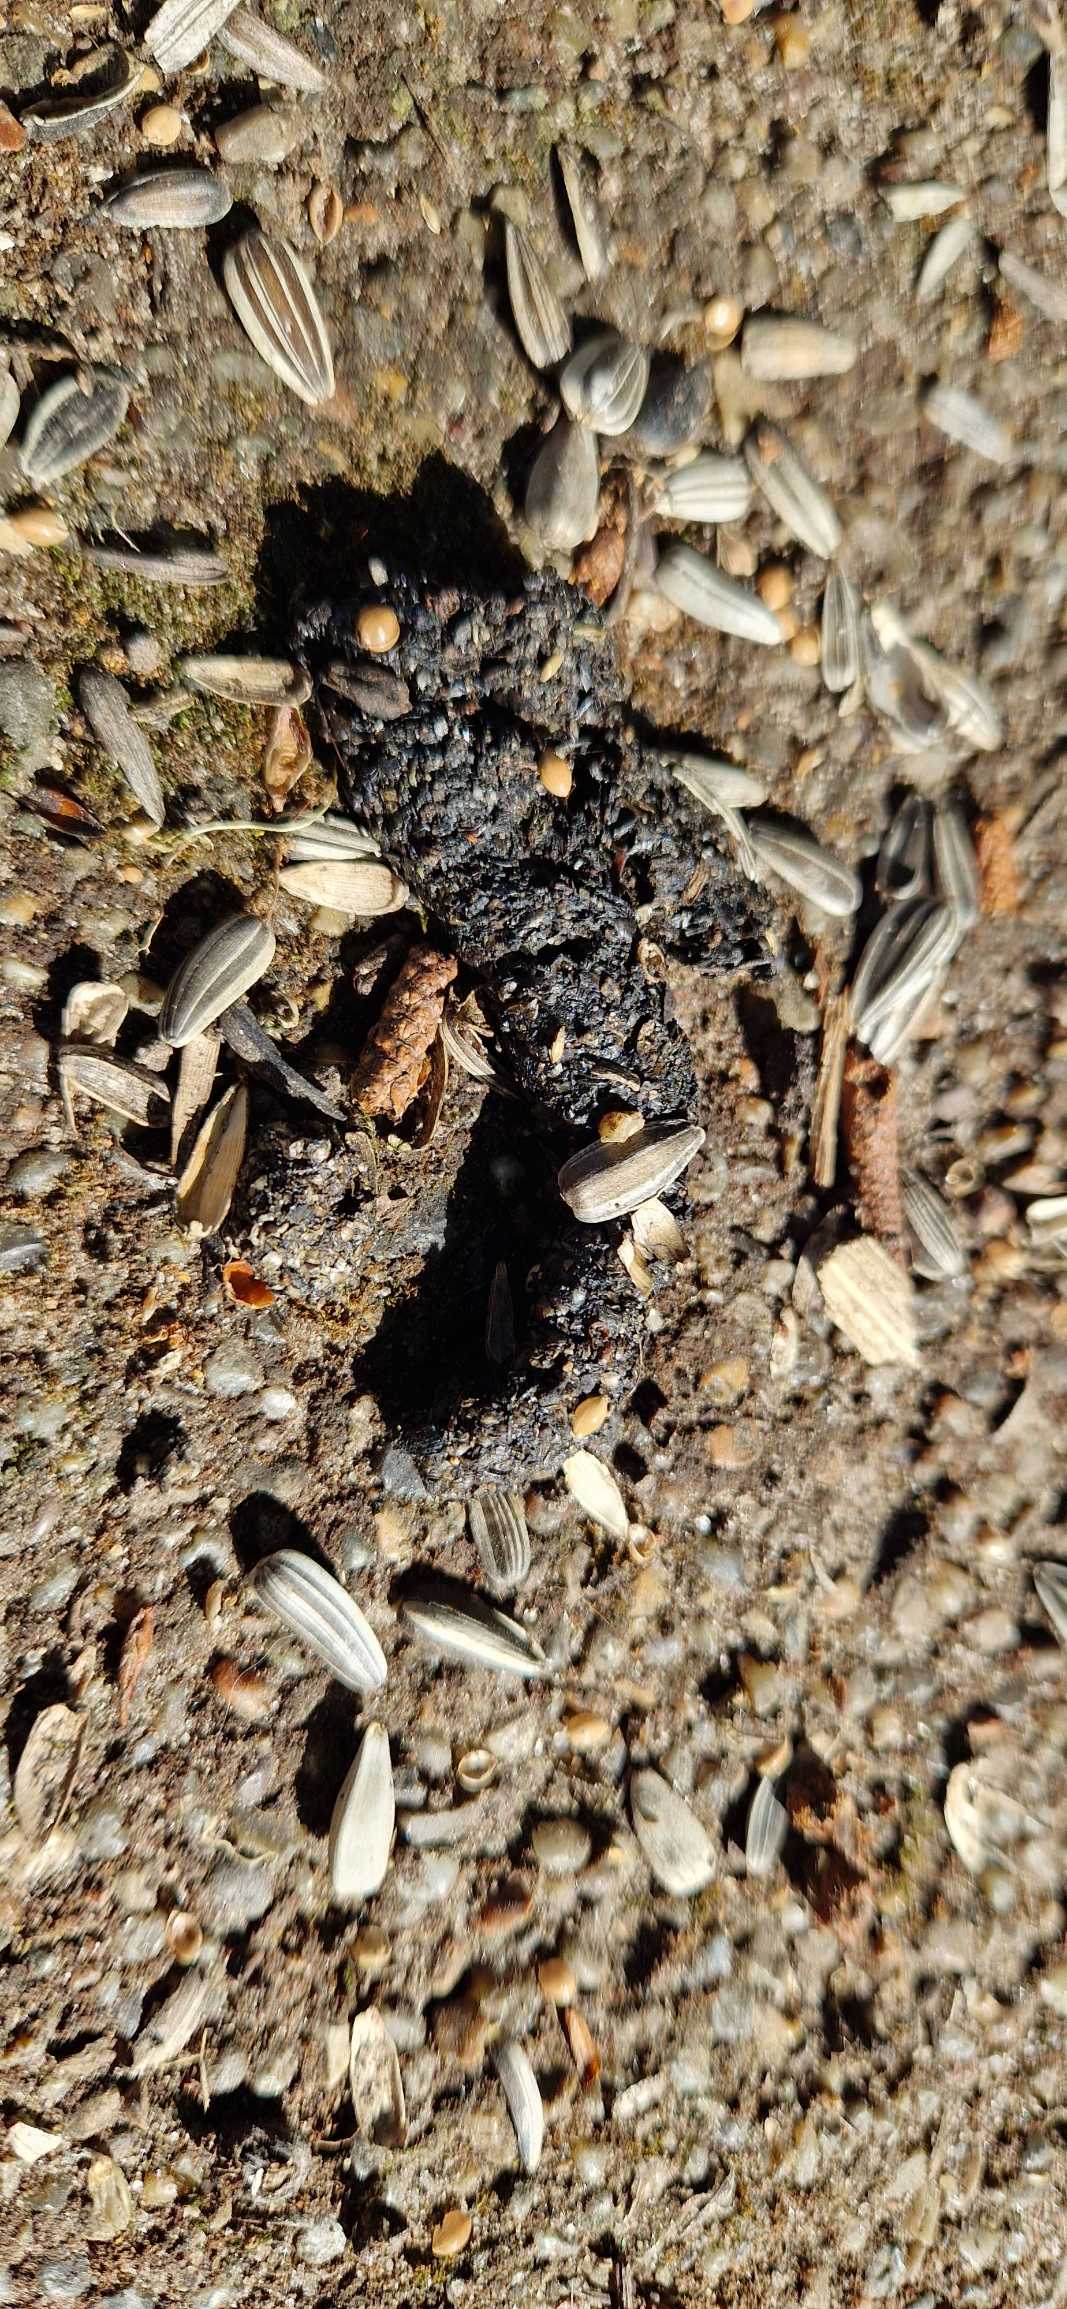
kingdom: Animalia
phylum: Chordata
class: Mammalia
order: Erinaceomorpha
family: Erinaceidae
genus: Erinaceus
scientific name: Erinaceus europaeus
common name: Pindsvin
